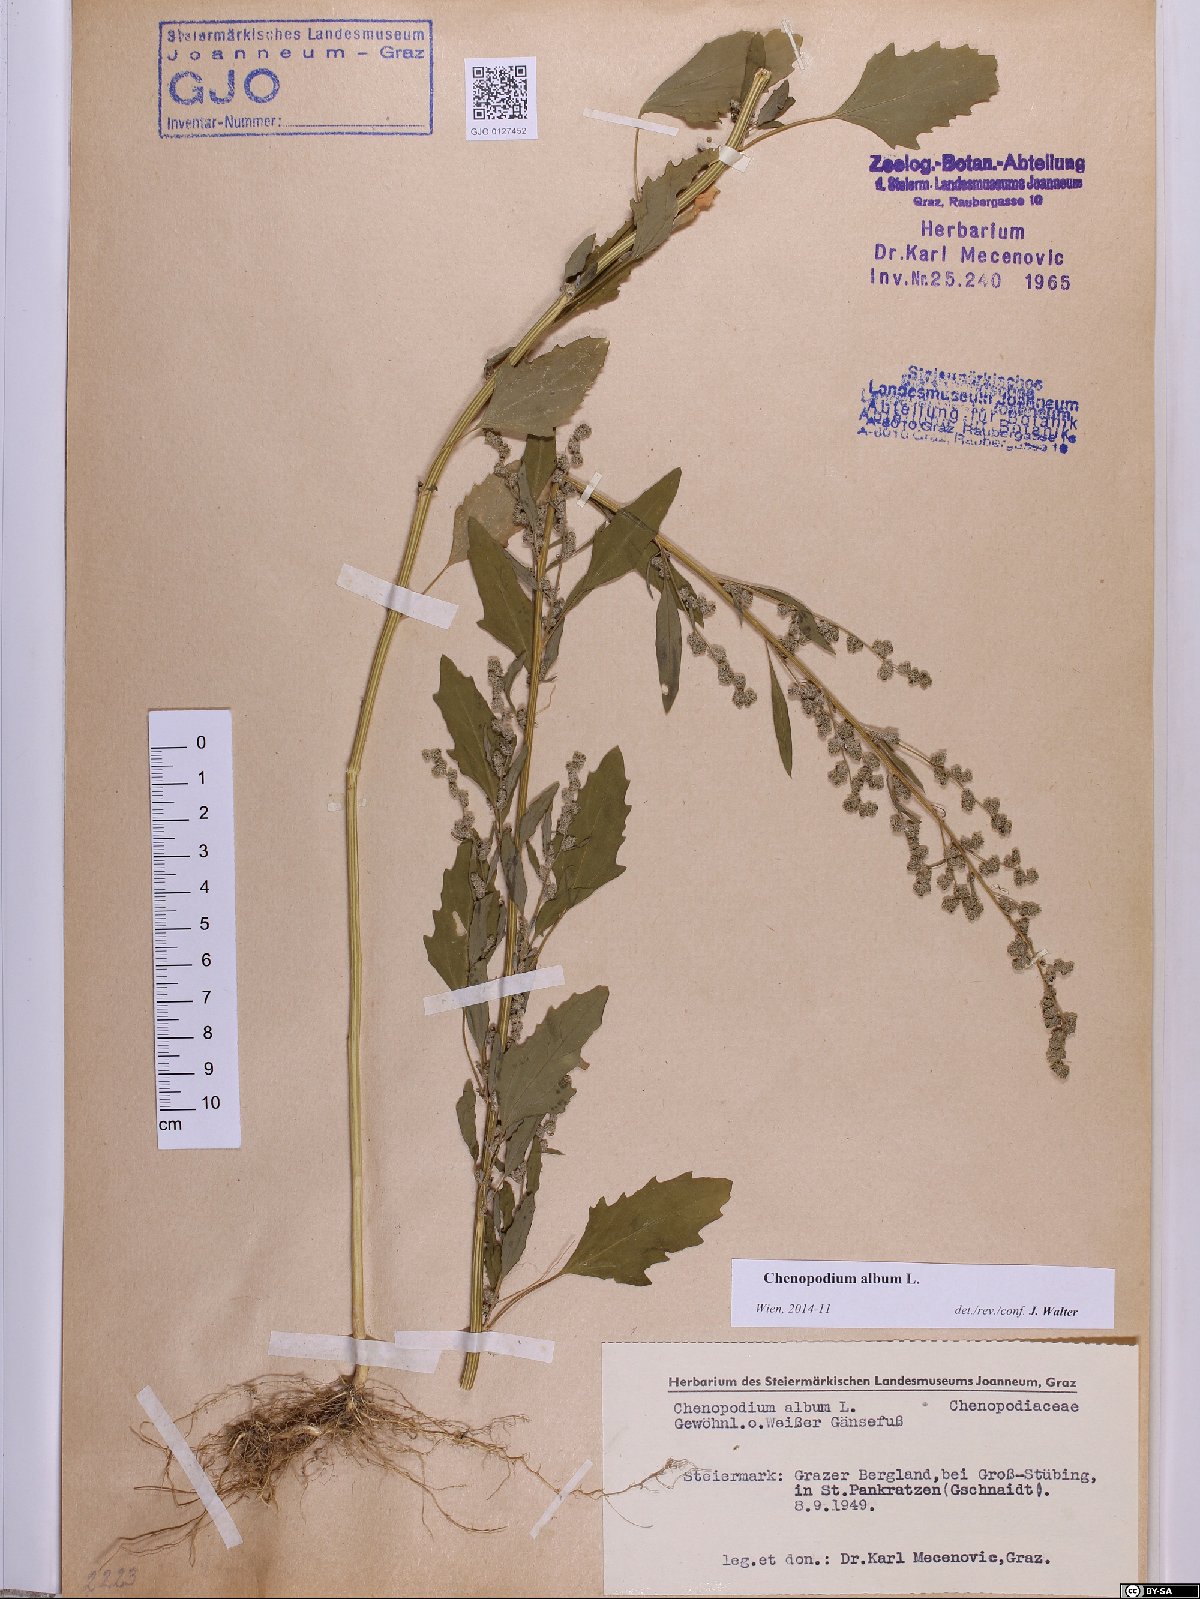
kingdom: Plantae
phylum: Tracheophyta
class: Magnoliopsida
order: Caryophyllales
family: Amaranthaceae
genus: Chenopodium
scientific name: Chenopodium album
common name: Fat-hen
